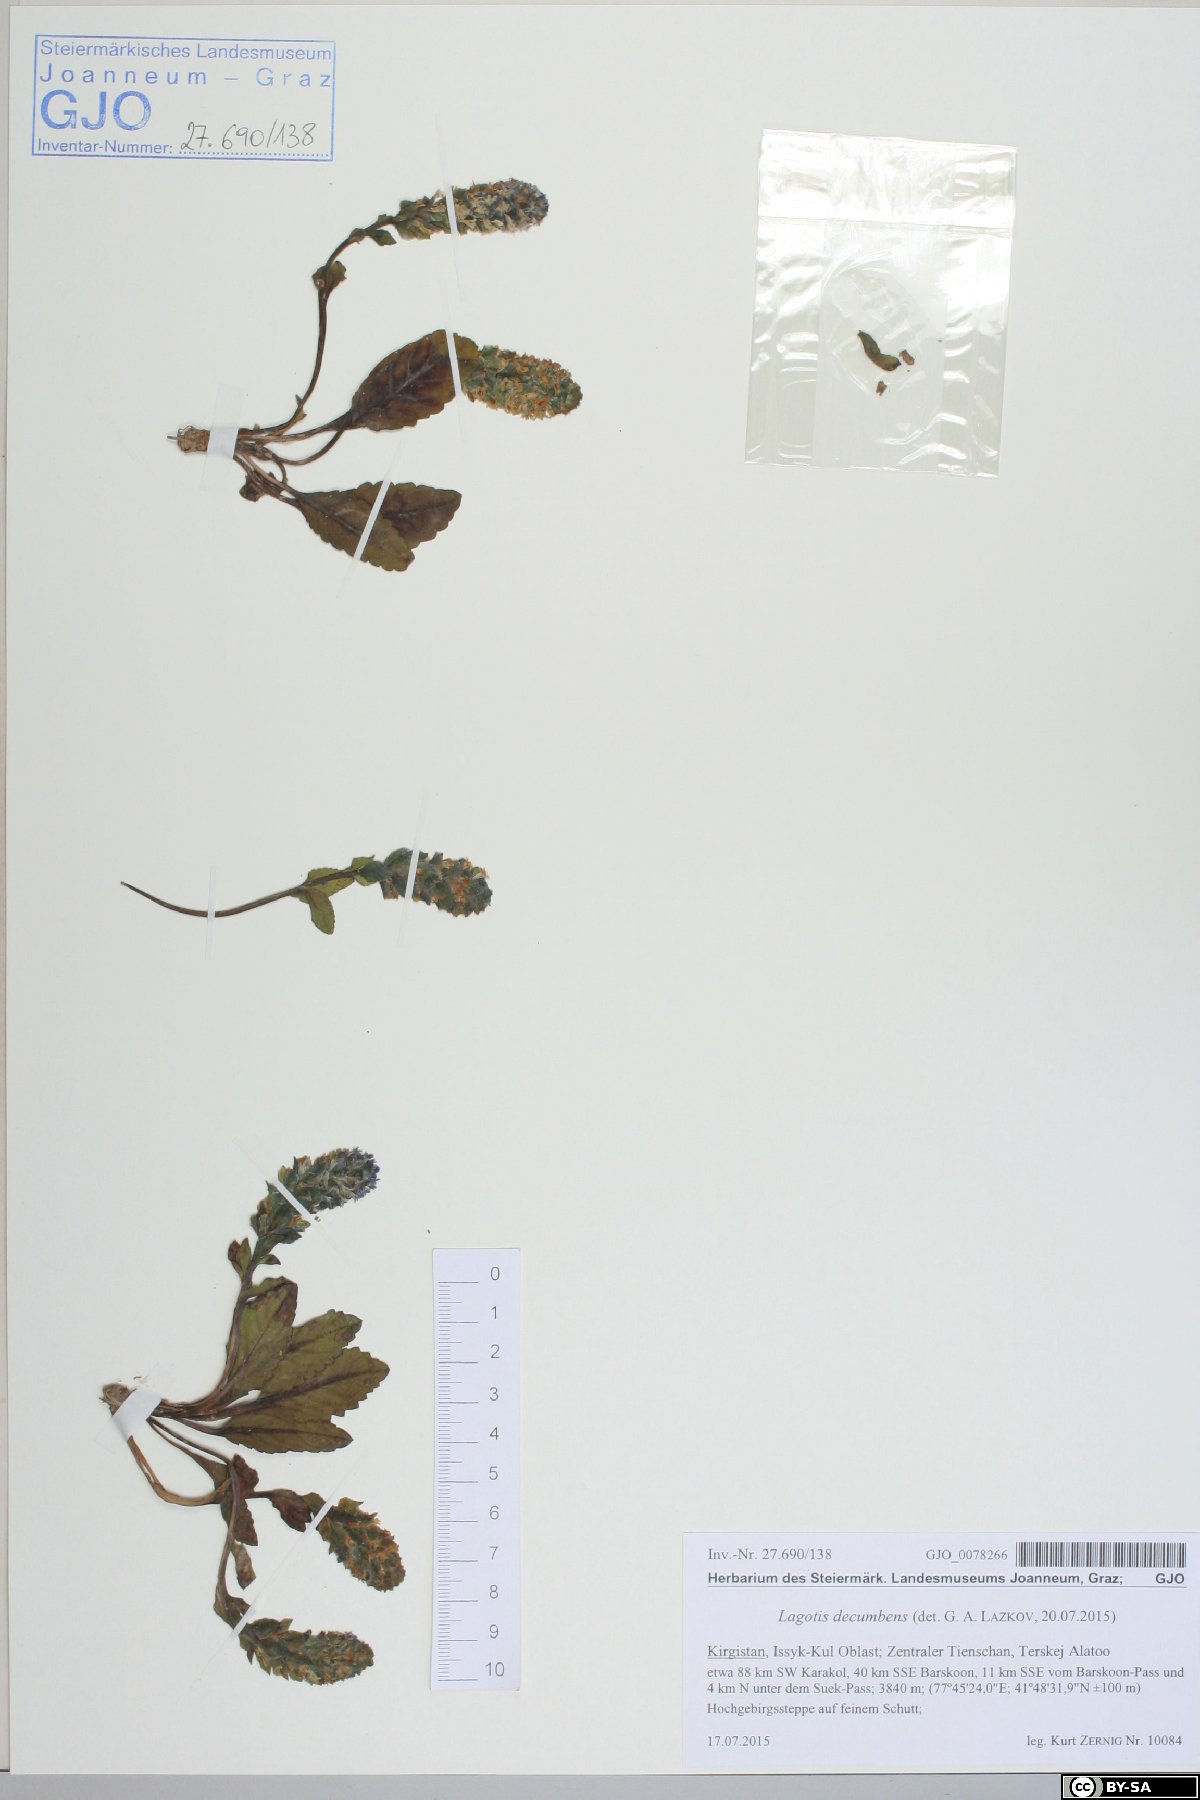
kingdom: Plantae
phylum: Tracheophyta
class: Magnoliopsida
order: Lamiales
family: Plantaginaceae
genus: Lagotis
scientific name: Lagotis decumbens
